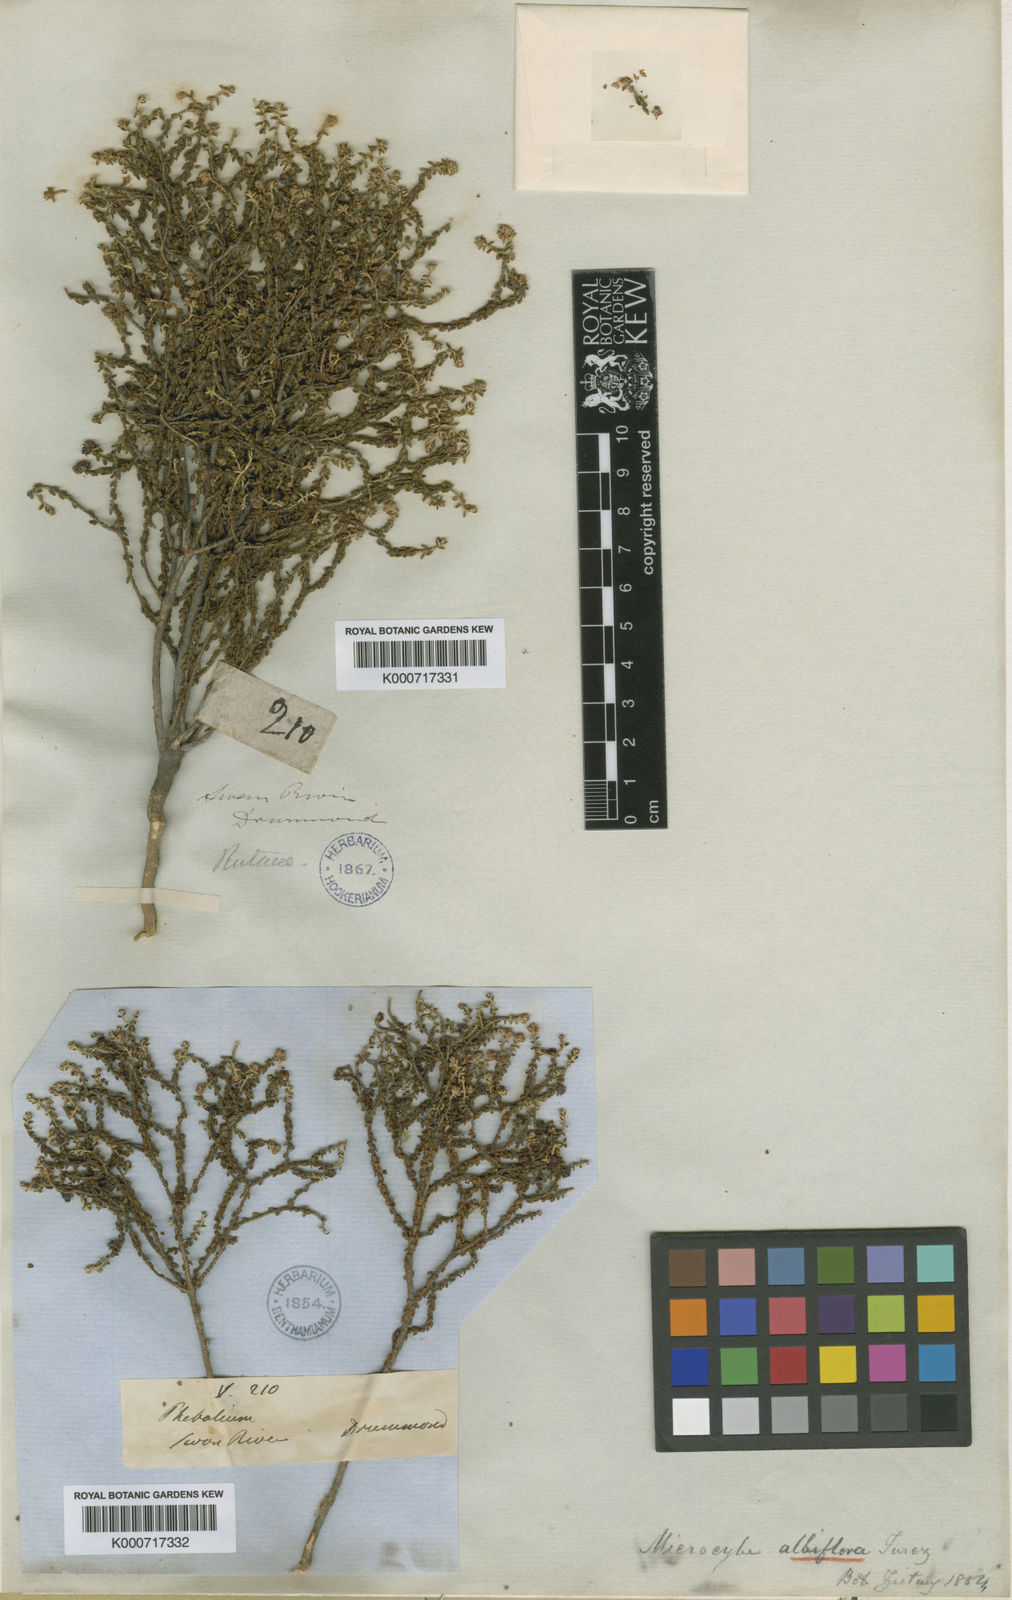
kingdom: Plantae
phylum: Tracheophyta
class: Magnoliopsida
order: Sapindales
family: Rutaceae
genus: Microcybe
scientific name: Microcybe albiflora
